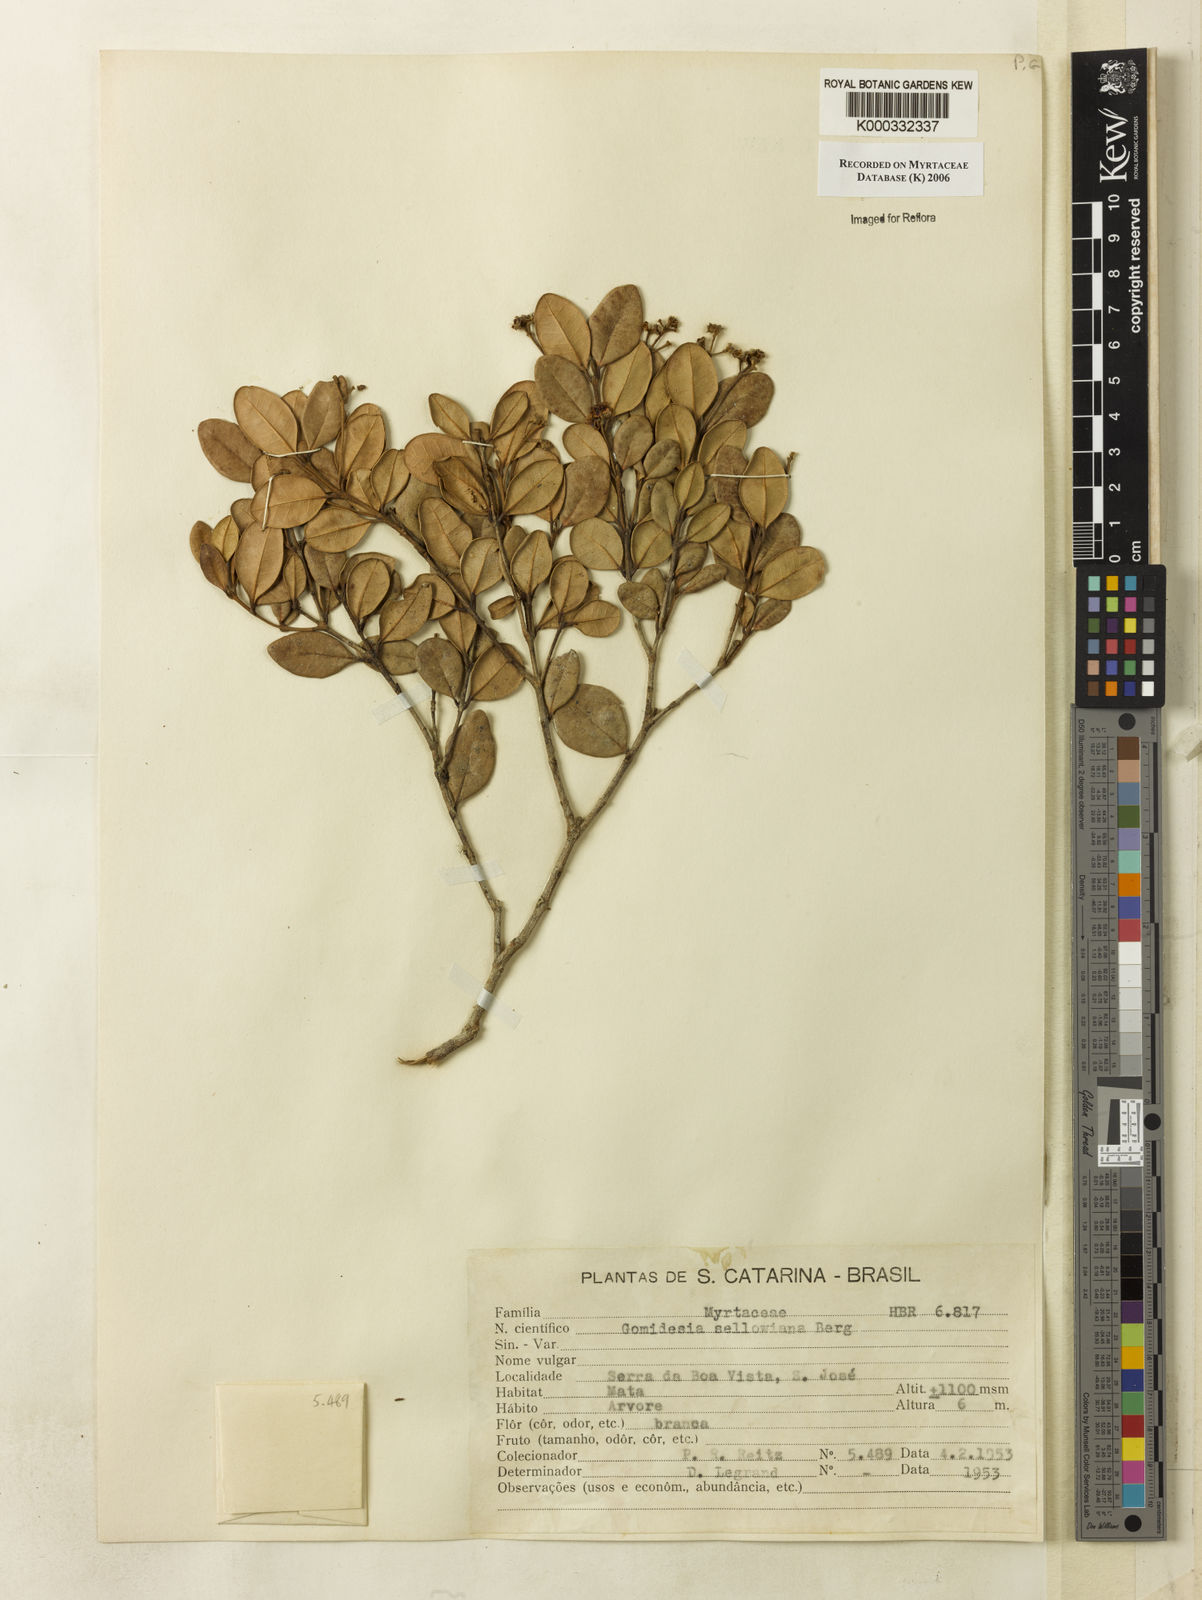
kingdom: Plantae
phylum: Tracheophyta
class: Magnoliopsida
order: Myrtales
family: Myrtaceae
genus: Myrcia
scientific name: Myrcia hartwegiana
